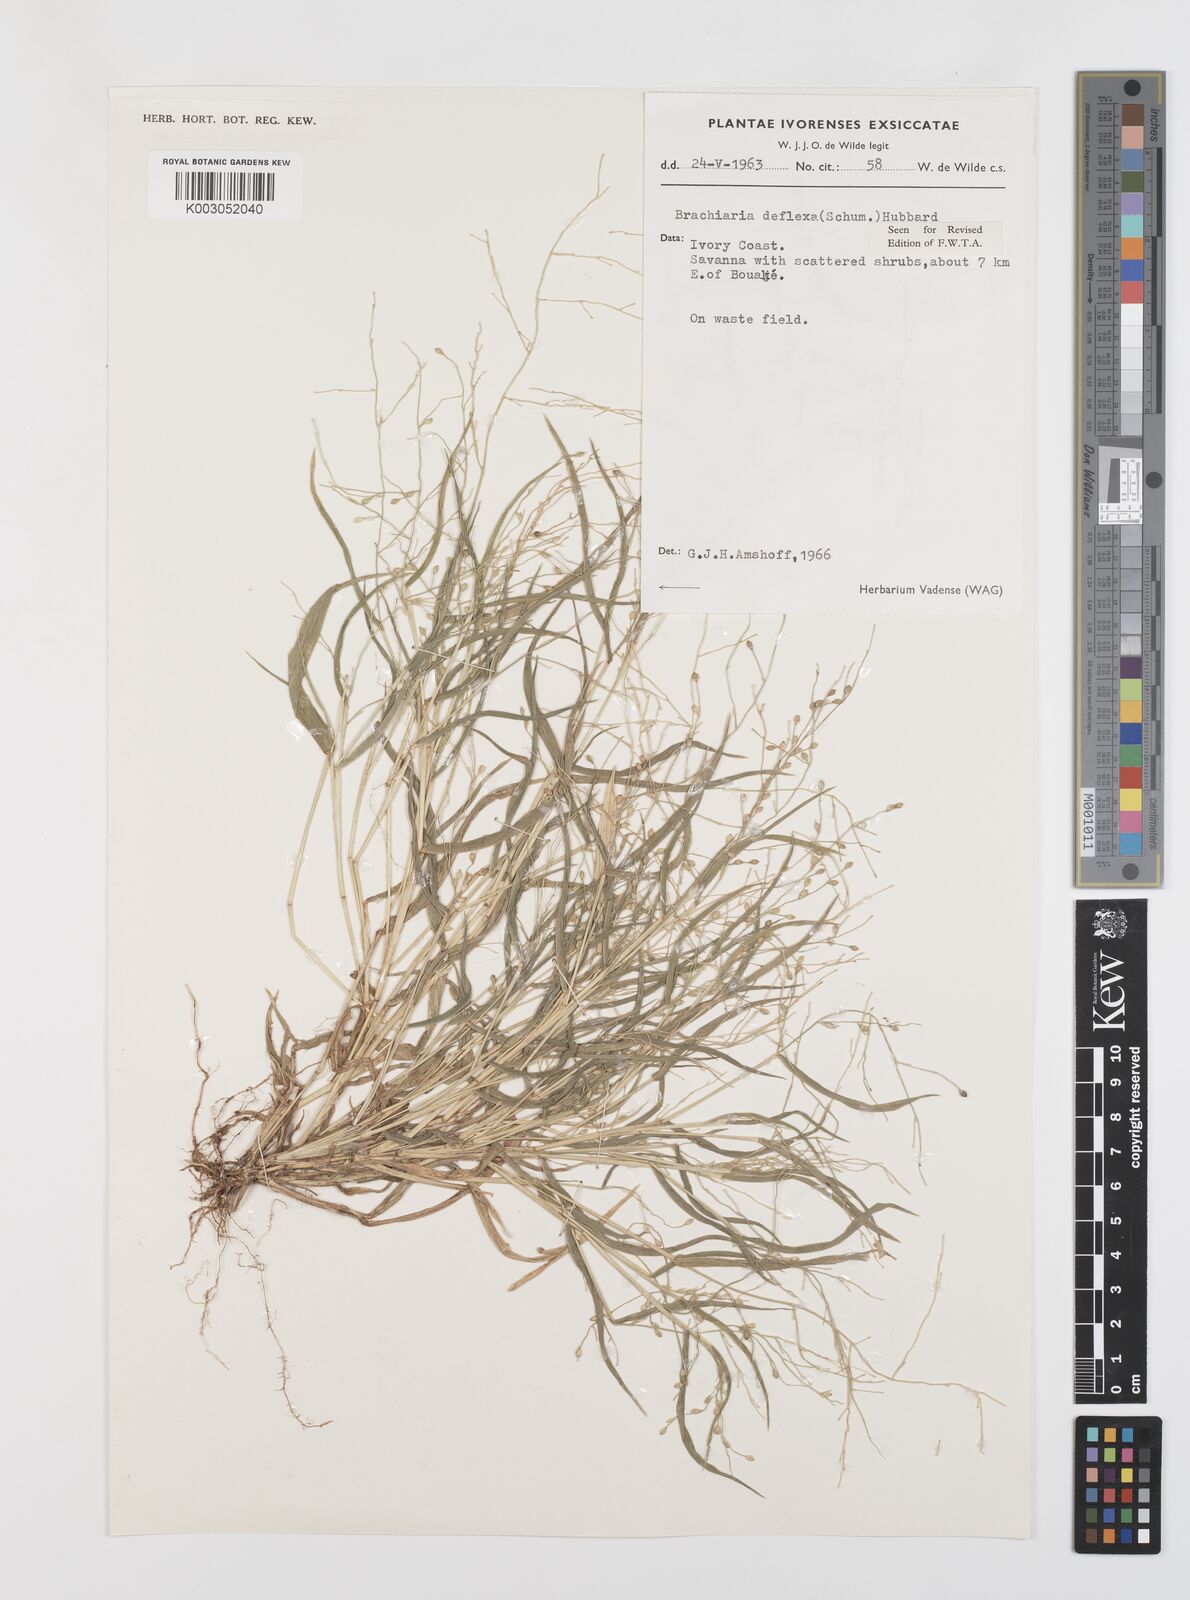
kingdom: Plantae
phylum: Tracheophyta
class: Liliopsida
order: Poales
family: Poaceae
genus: Urochloa
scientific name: Urochloa deflexa
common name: Guinea millet
